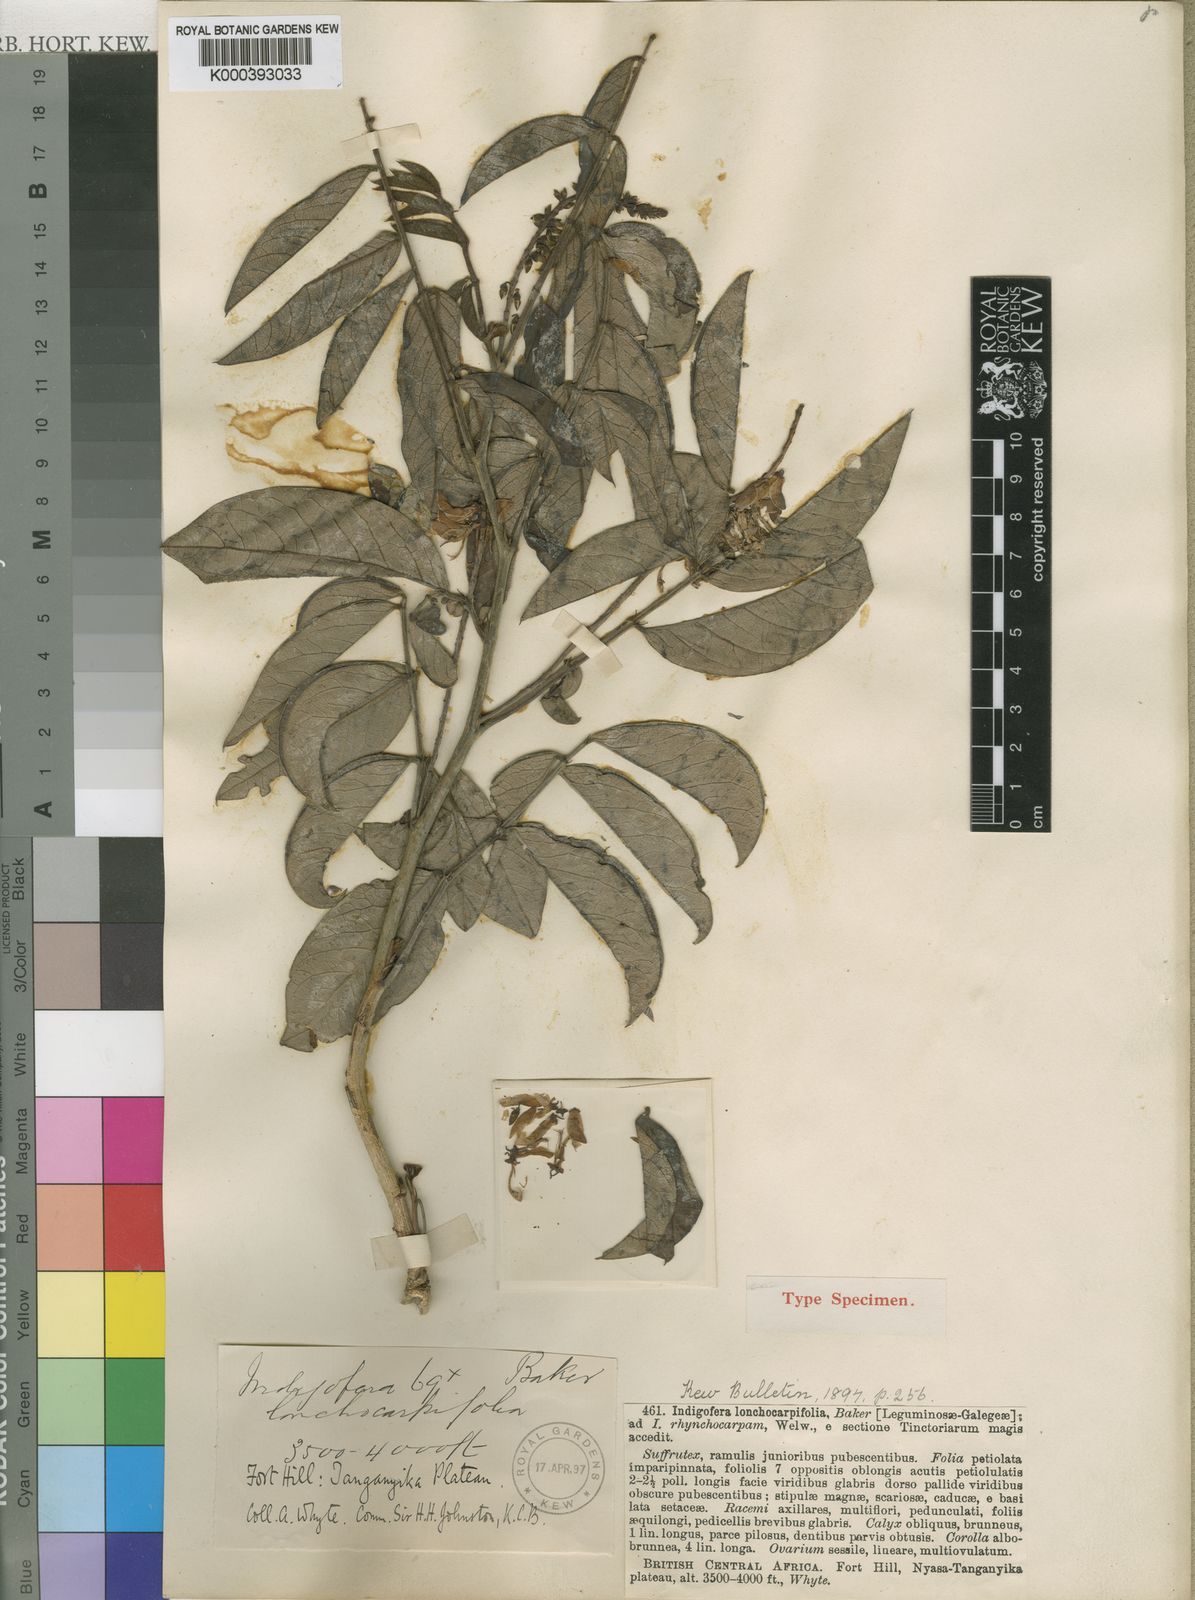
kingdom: Plantae
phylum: Tracheophyta
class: Magnoliopsida
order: Fabales
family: Fabaceae
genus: Indigofera
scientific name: Indigofera rhynchocarpa
